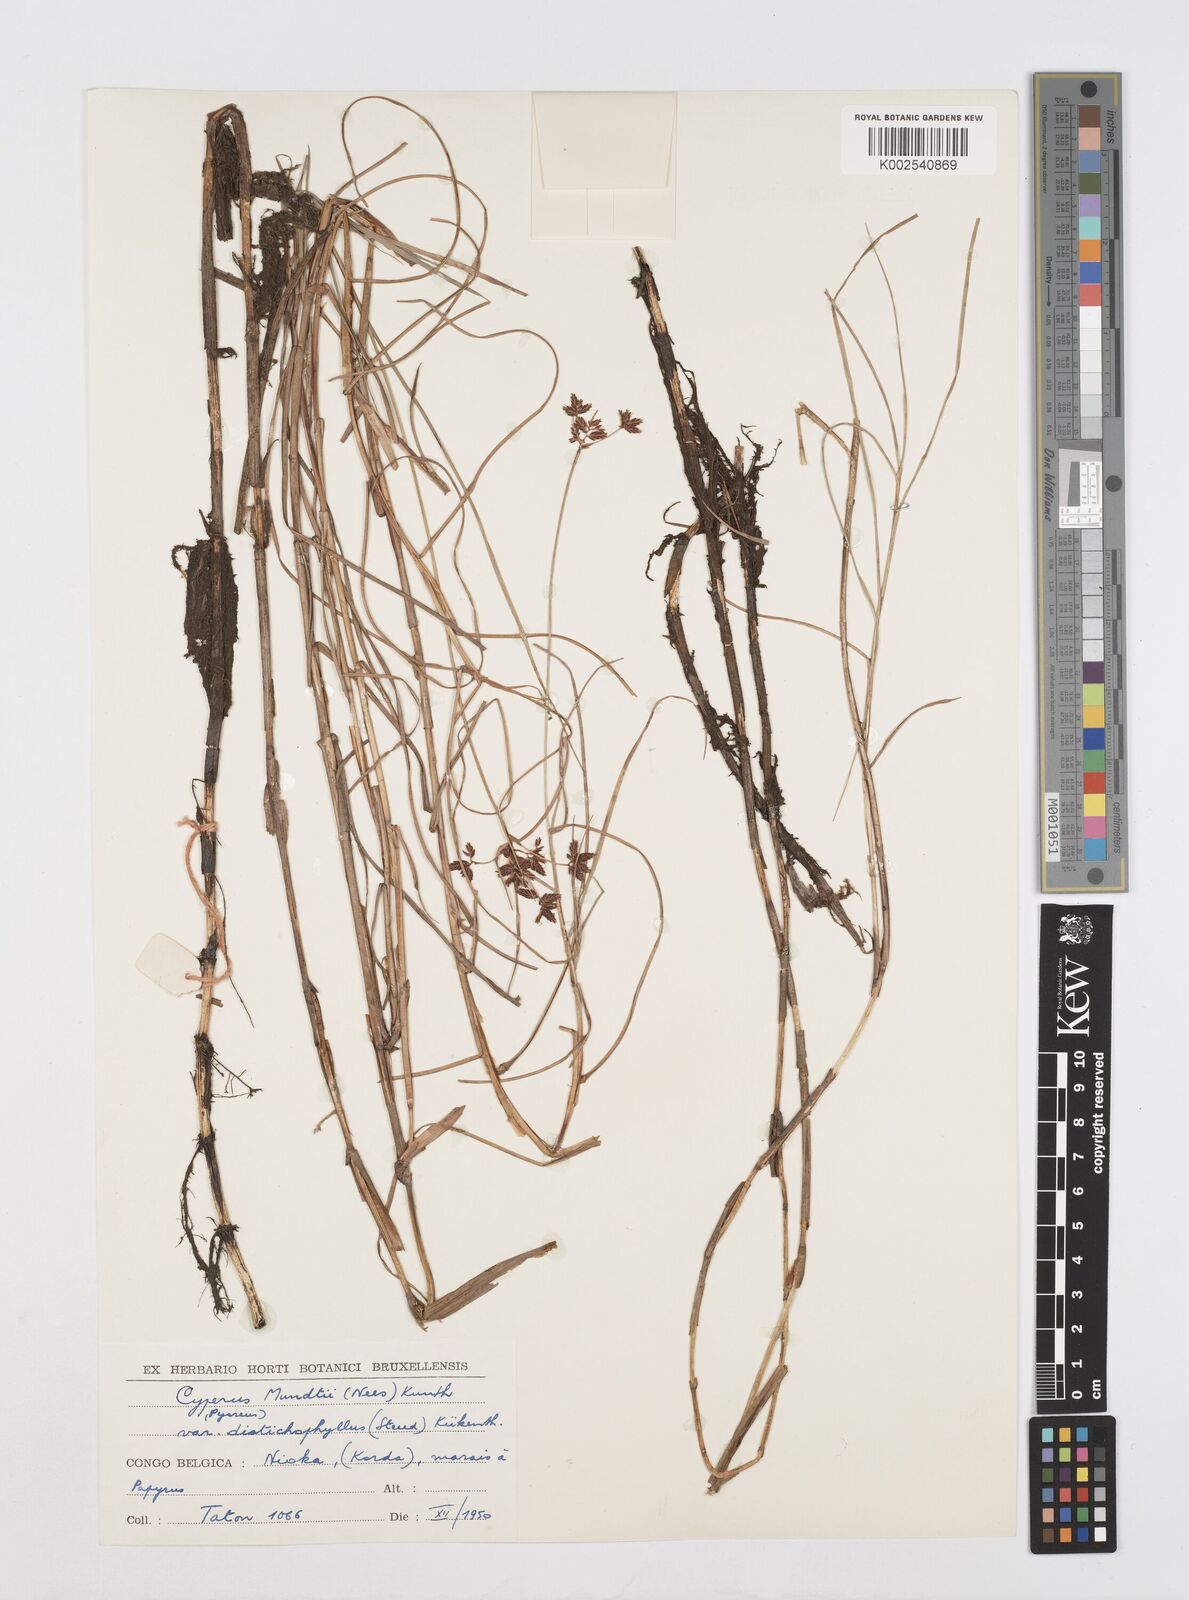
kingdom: Plantae
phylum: Tracheophyta
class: Liliopsida
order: Poales
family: Cyperaceae
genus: Cyperus
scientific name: Cyperus mundii
